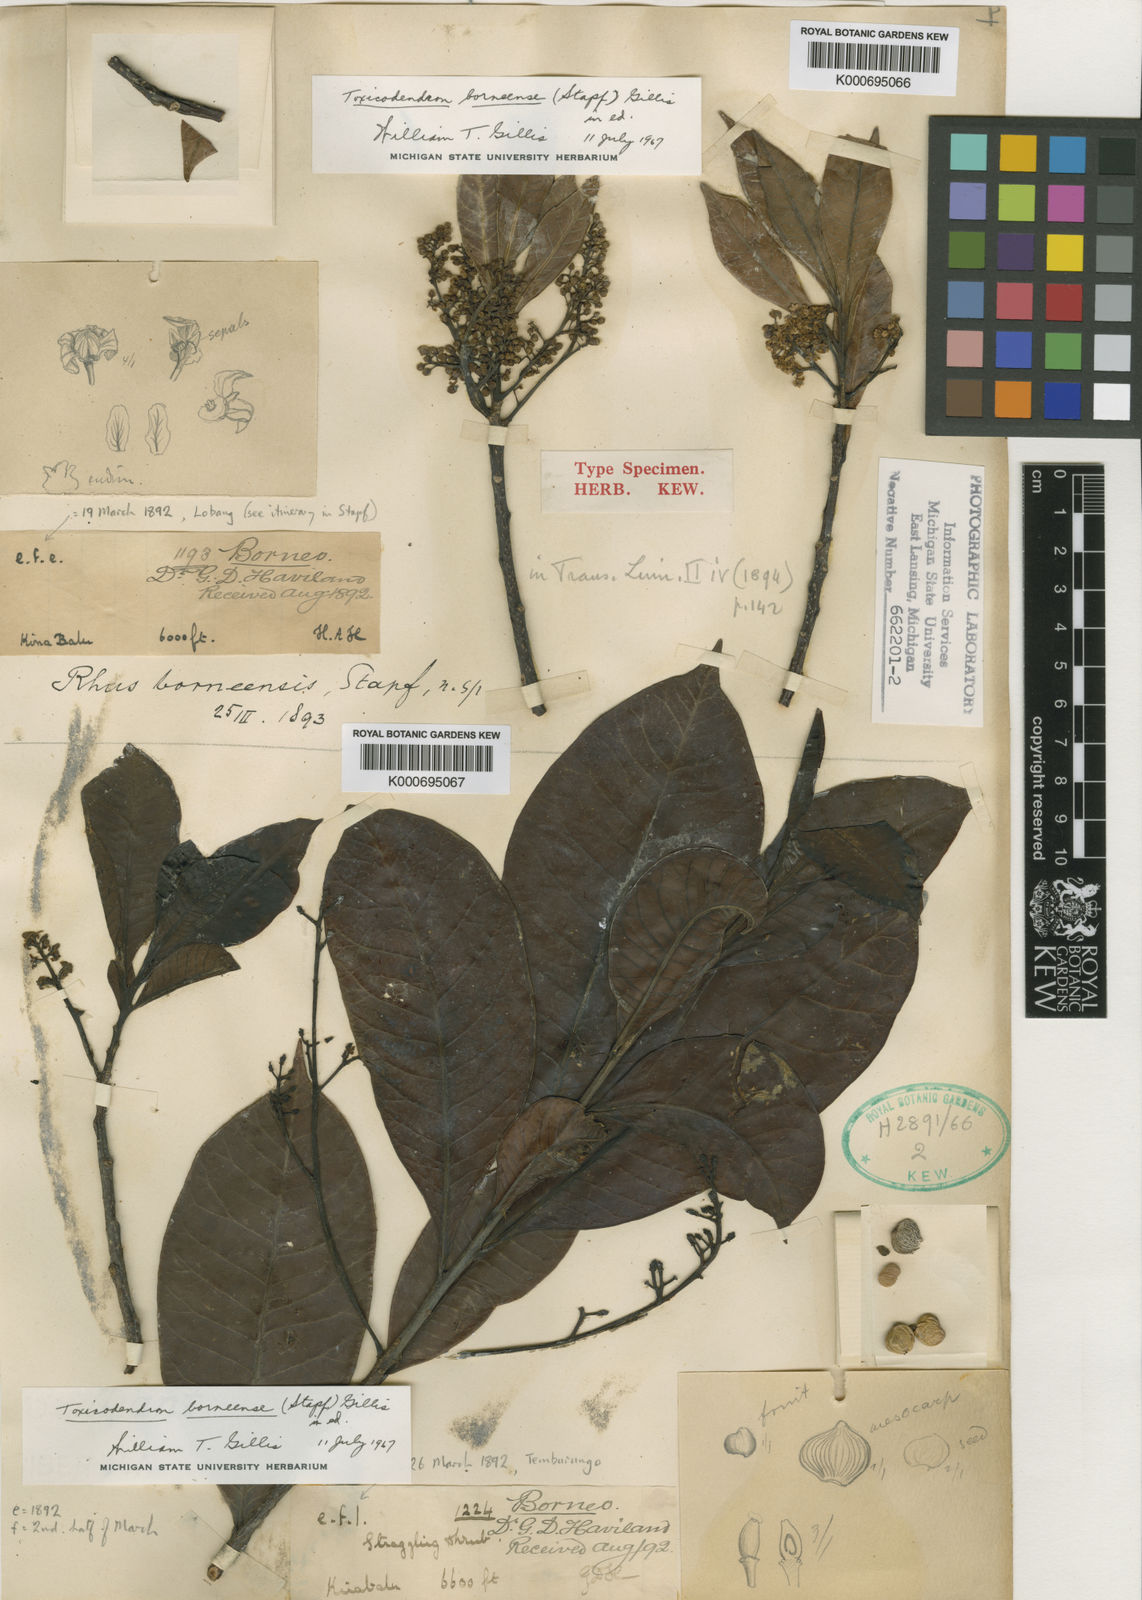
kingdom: Plantae
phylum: Tracheophyta
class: Magnoliopsida
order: Sapindales
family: Anacardiaceae
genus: Toxicodendron
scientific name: Toxicodendron borneense
